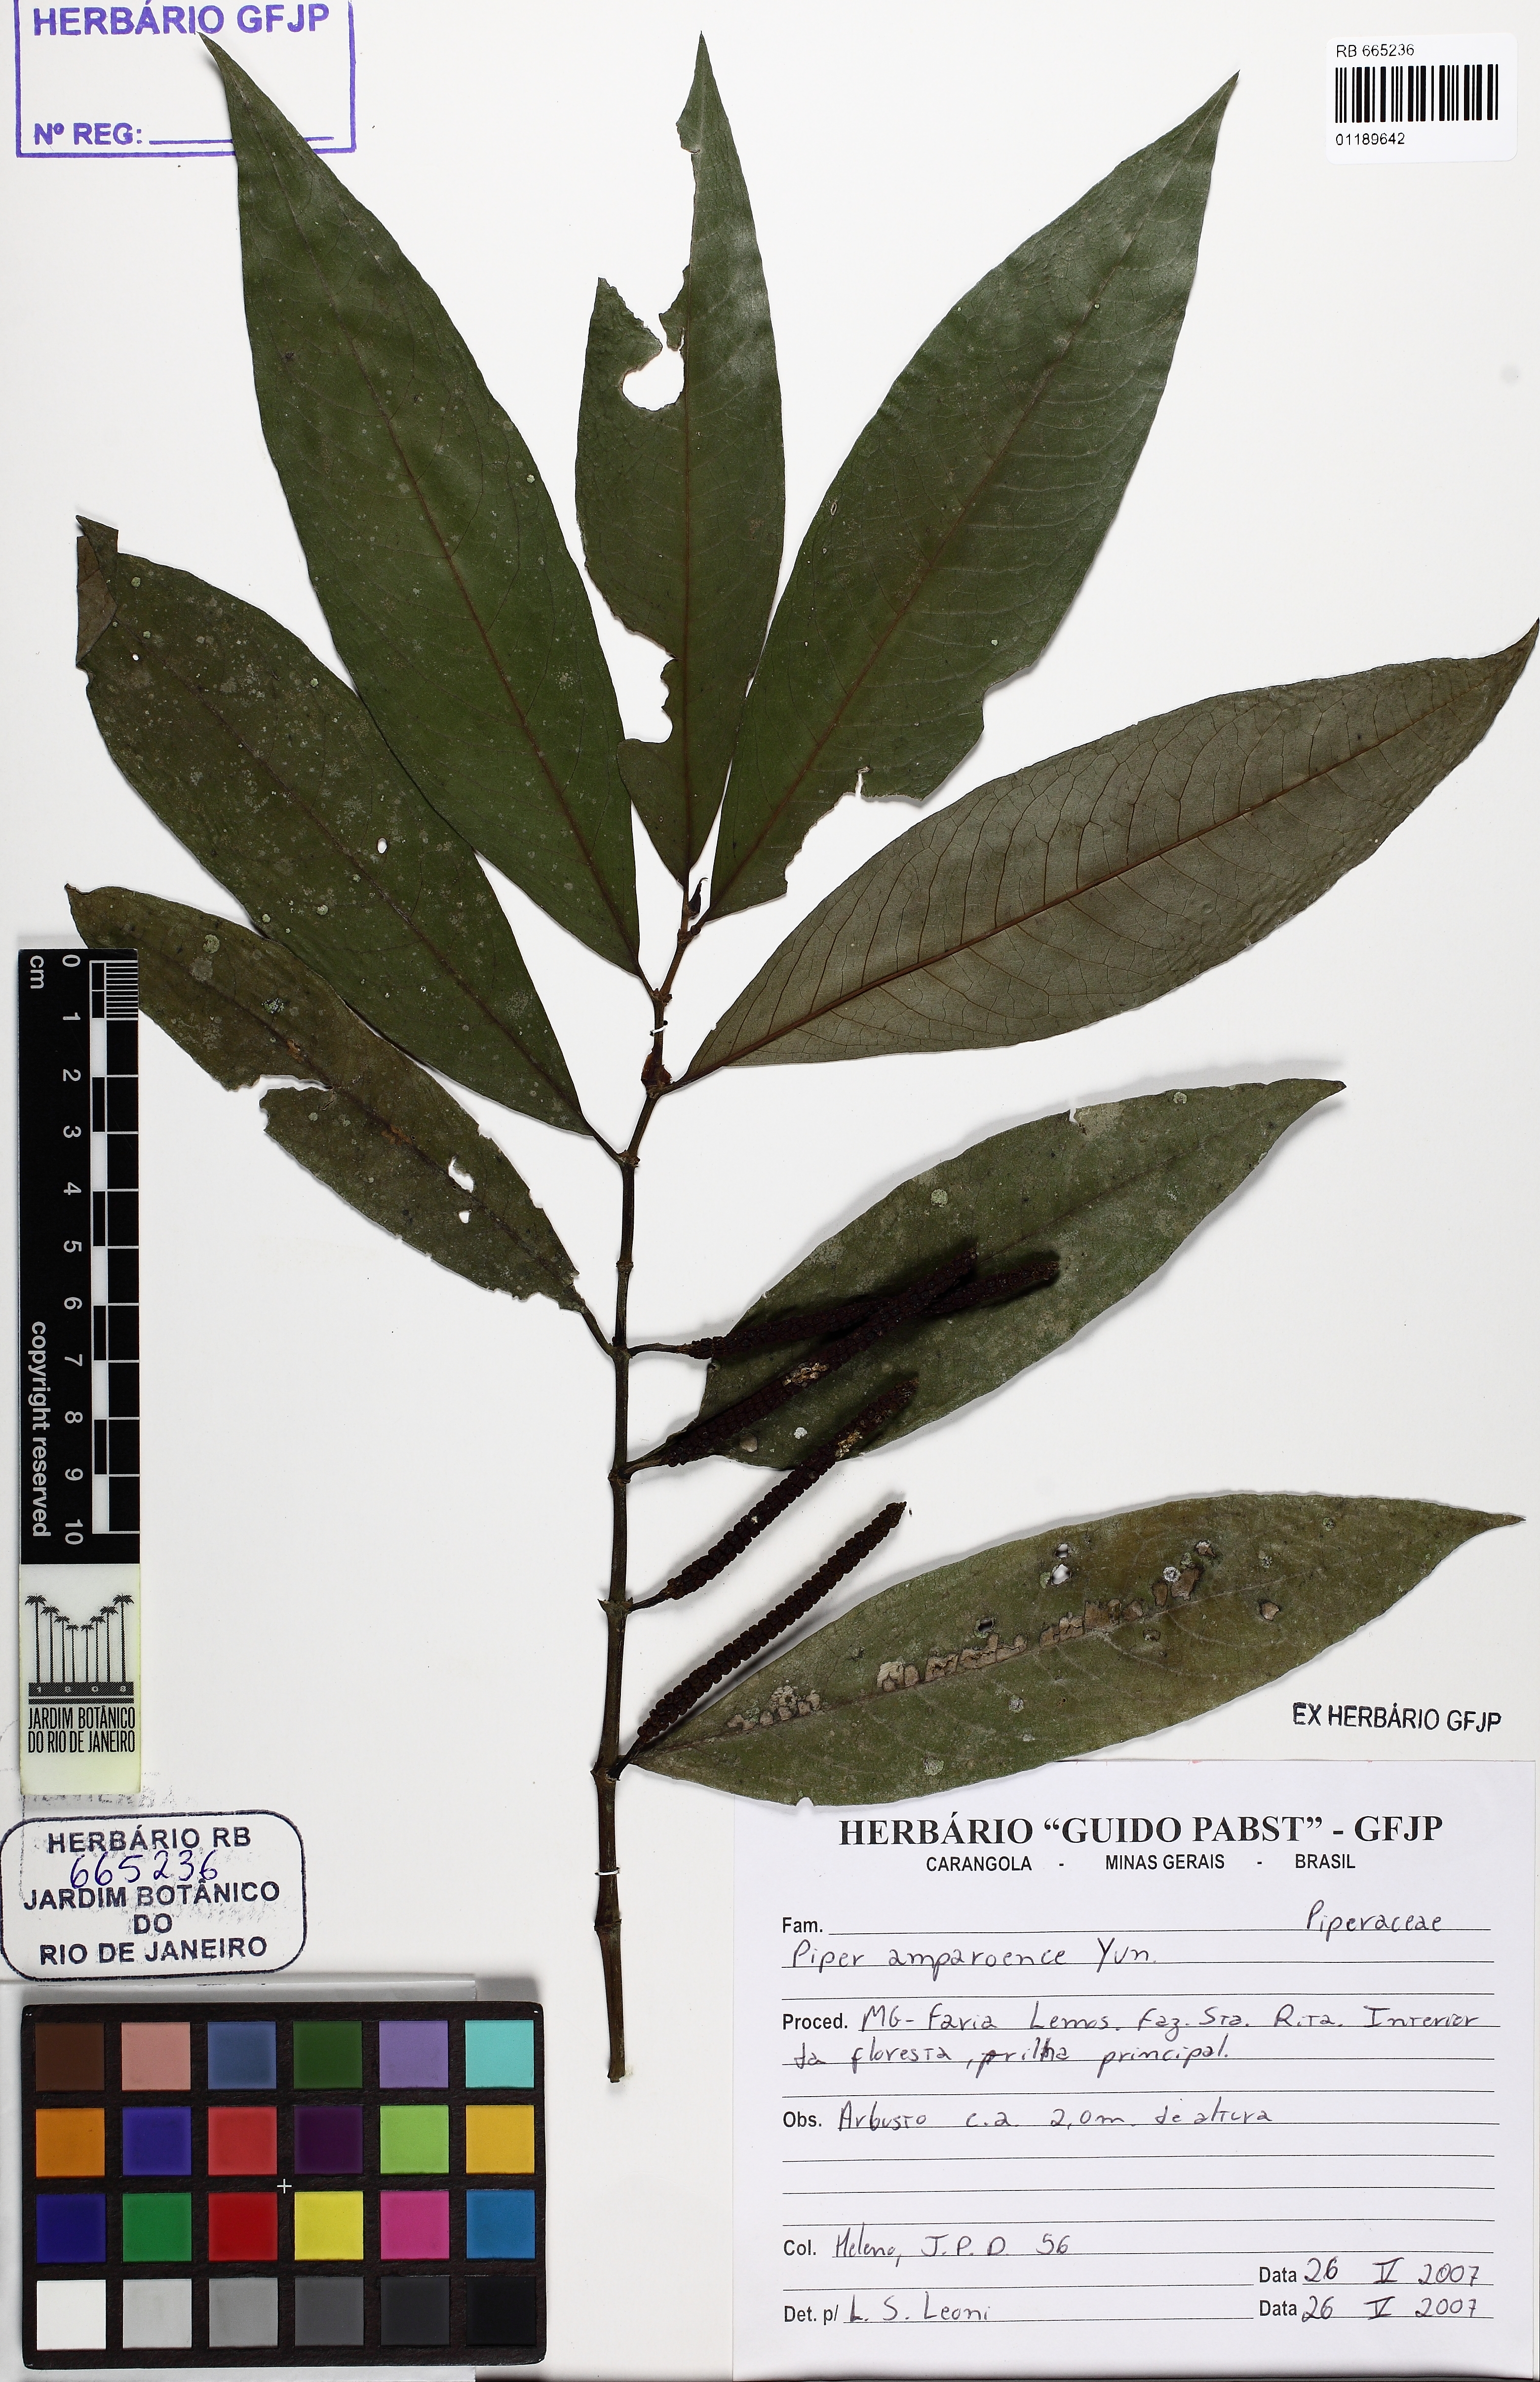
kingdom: Plantae
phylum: Tracheophyta
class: Magnoliopsida
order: Piperales
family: Piperaceae
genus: Piper
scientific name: Piper amparoense
